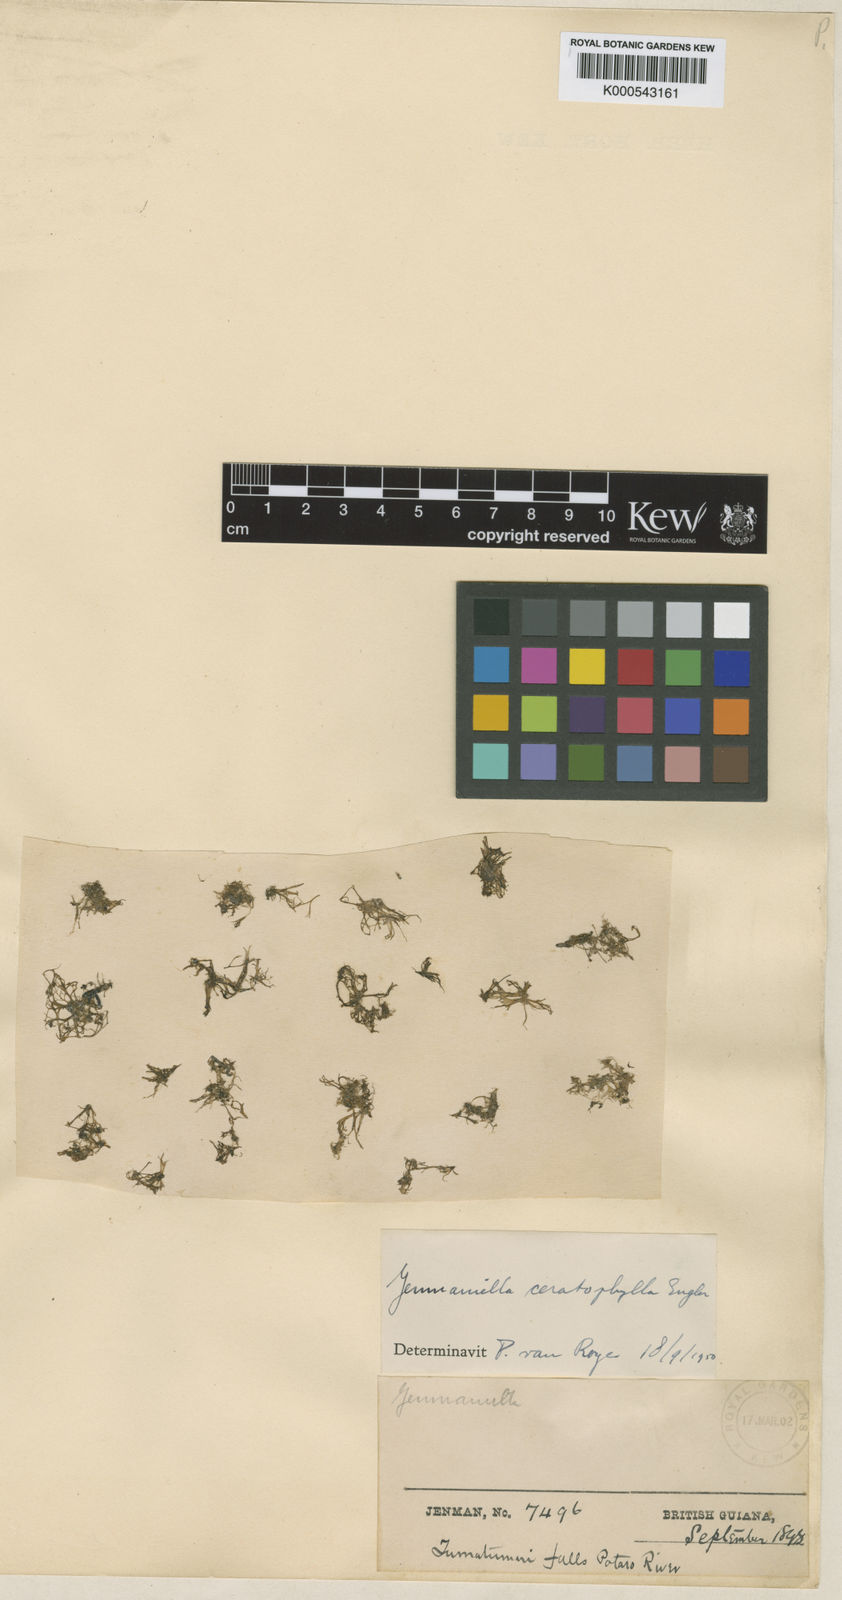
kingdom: Plantae
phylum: Tracheophyta
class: Magnoliopsida
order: Malpighiales
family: Podostemaceae
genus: Lophogyne
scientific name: Lophogyne ceratophylla
